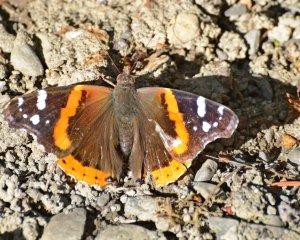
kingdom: Animalia
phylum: Arthropoda
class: Insecta
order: Lepidoptera
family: Nymphalidae
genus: Vanessa
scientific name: Vanessa atalanta
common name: Red Admiral
